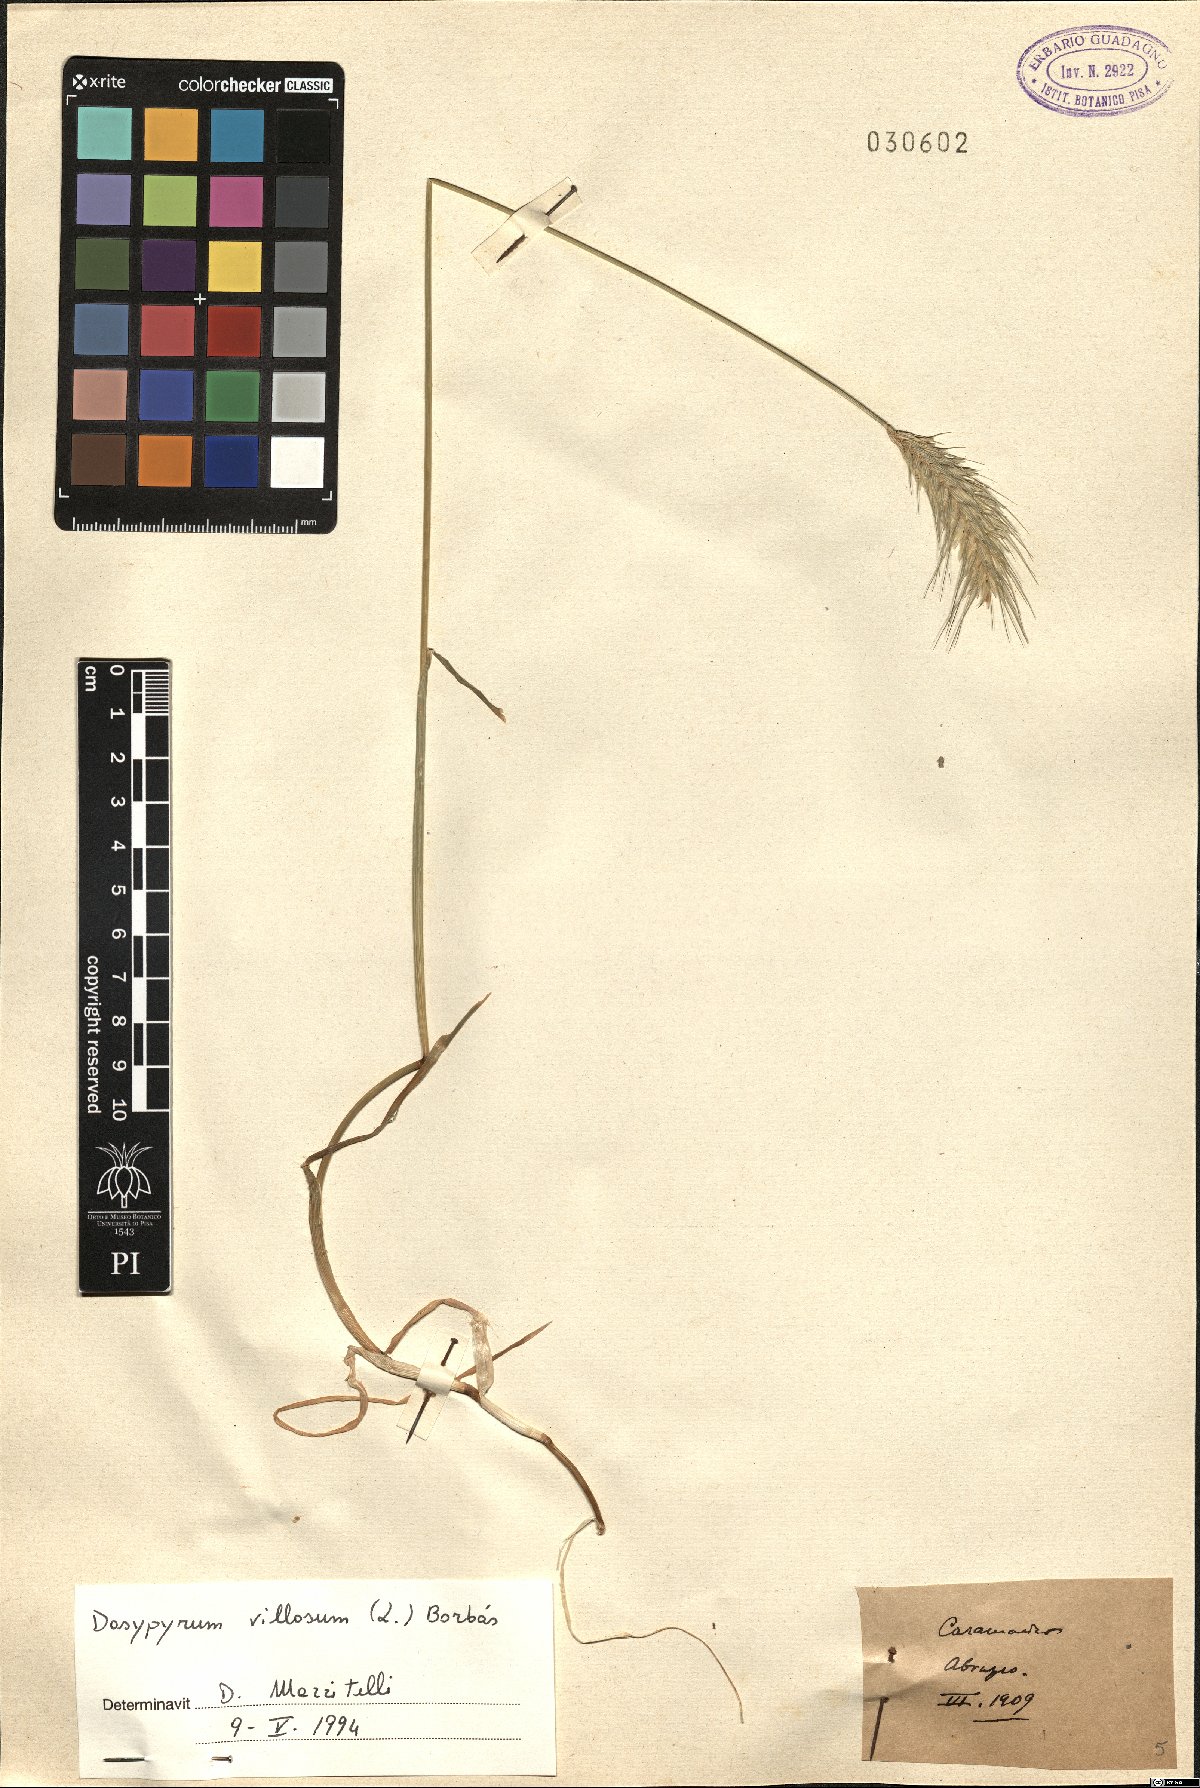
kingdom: Plantae
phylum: Tracheophyta
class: Liliopsida
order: Poales
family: Poaceae
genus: Dasypyrum
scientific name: Dasypyrum villosum
